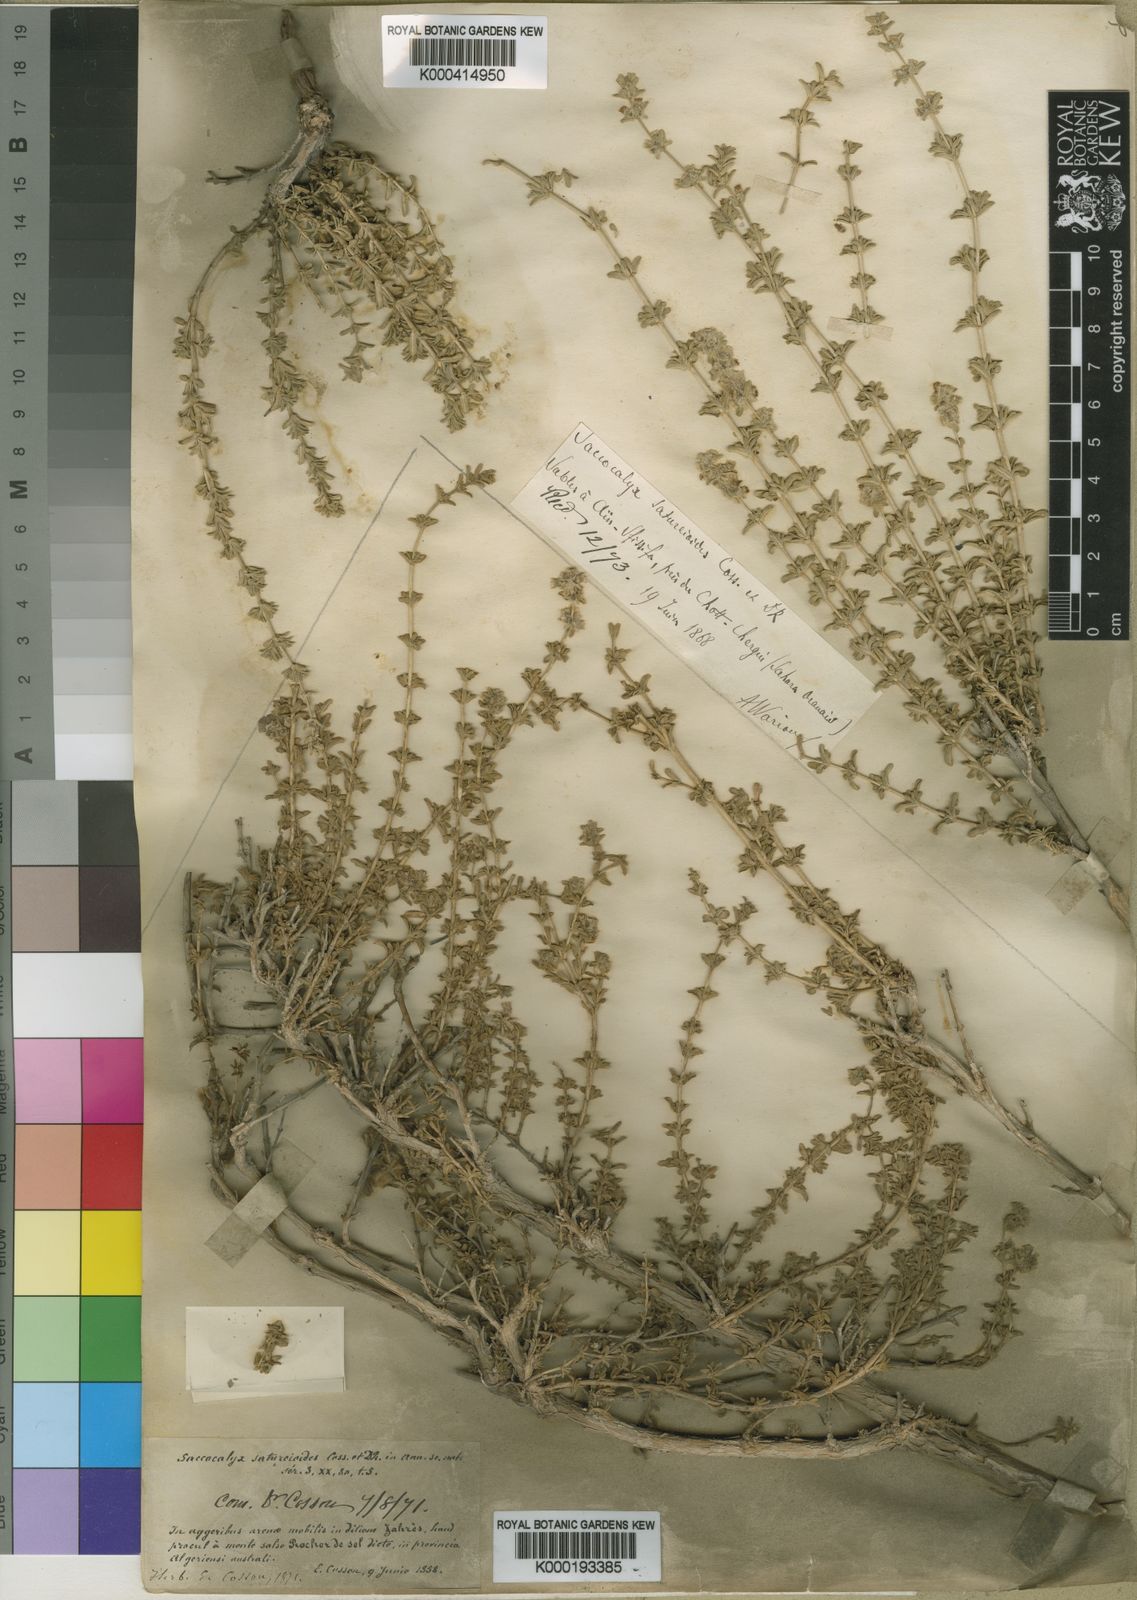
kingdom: Plantae
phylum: Tracheophyta
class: Magnoliopsida
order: Lamiales
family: Lamiaceae
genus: Saccocalyx
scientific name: Saccocalyx saturejoides
